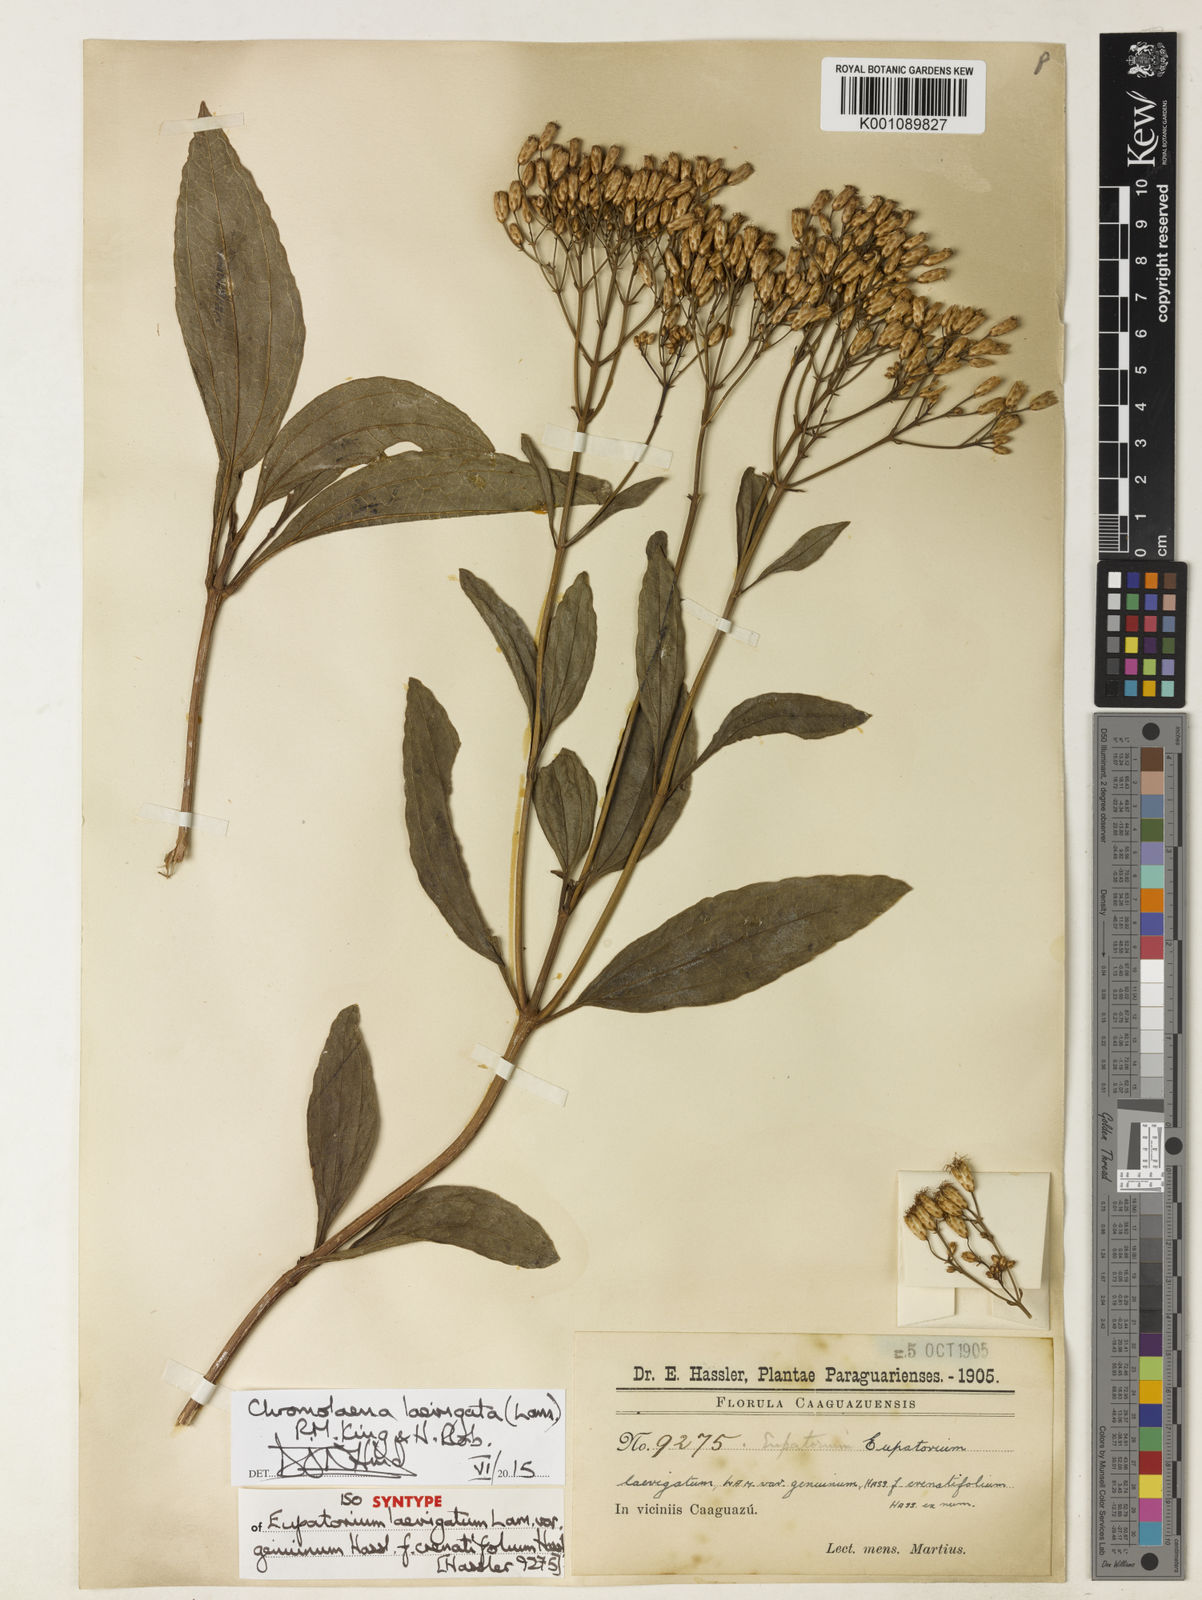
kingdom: Plantae
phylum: Tracheophyta
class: Magnoliopsida
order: Asterales
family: Asteraceae
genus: Chromolaena
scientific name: Chromolaena laevigata
